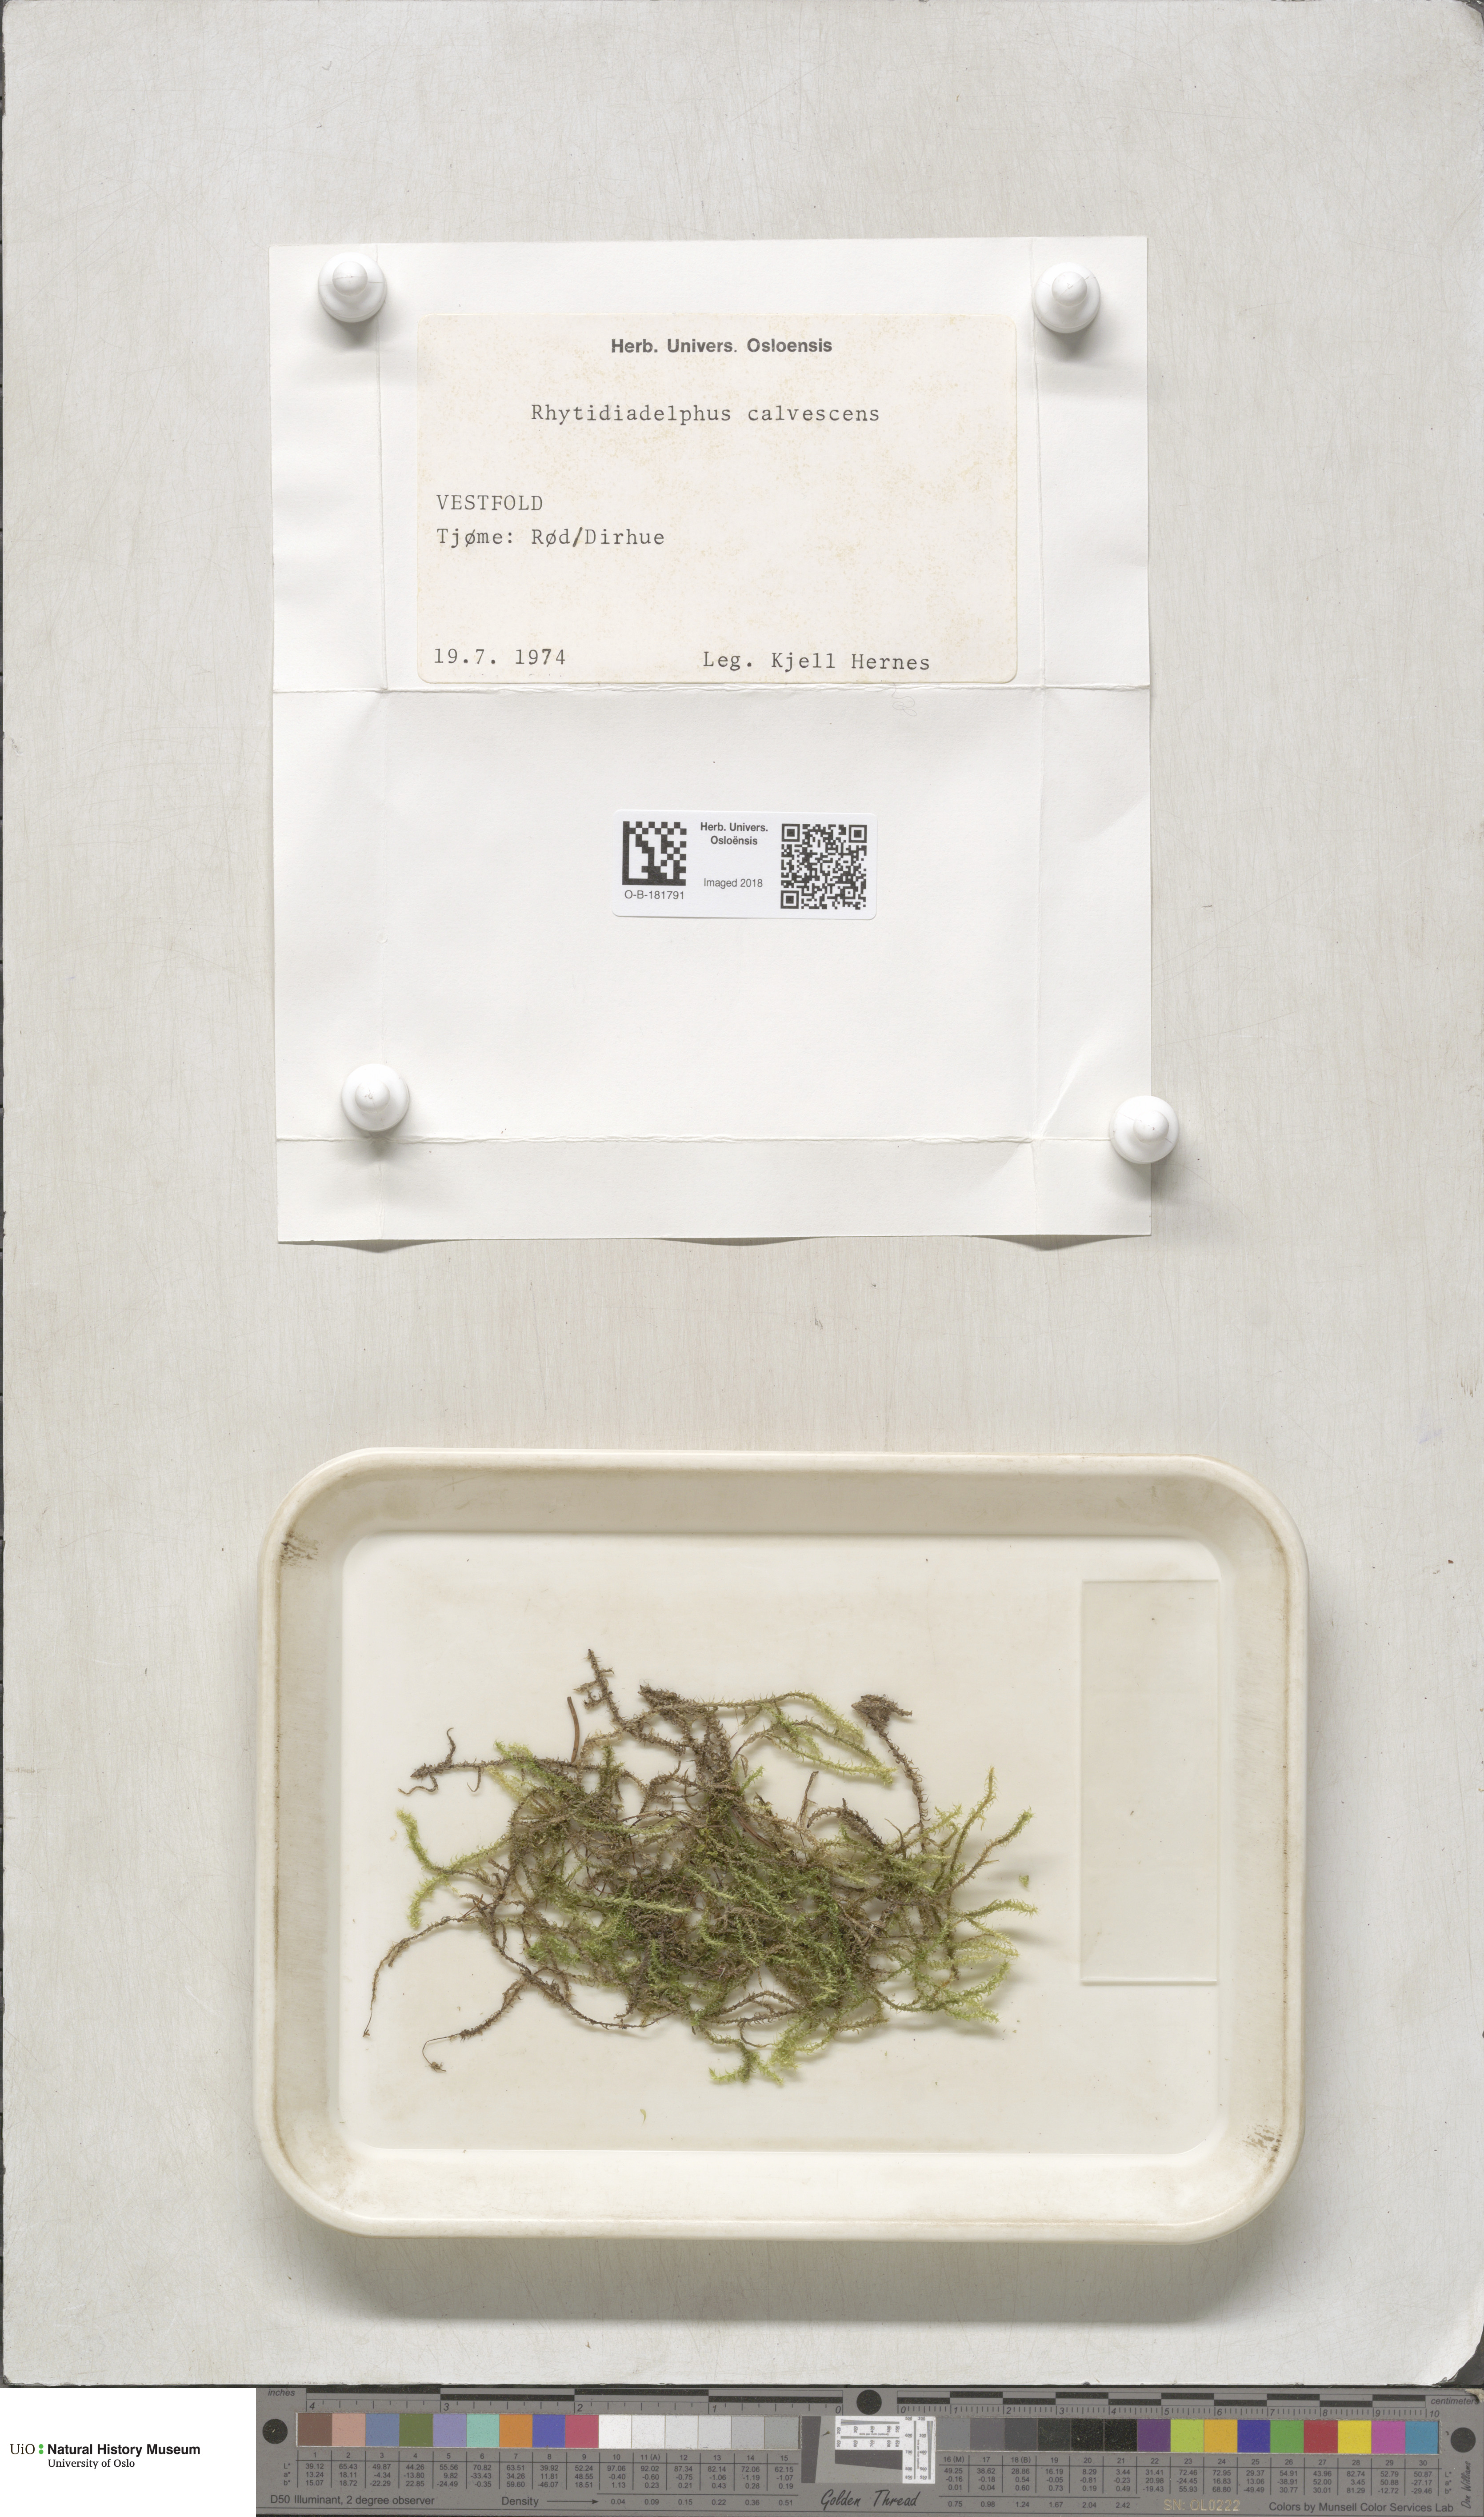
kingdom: Plantae
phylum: Bryophyta
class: Bryopsida
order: Hypnales
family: Hylocomiaceae
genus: Rhytidiadelphus
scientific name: Rhytidiadelphus subpinnatus
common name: Subpinnate gooseneck moss
